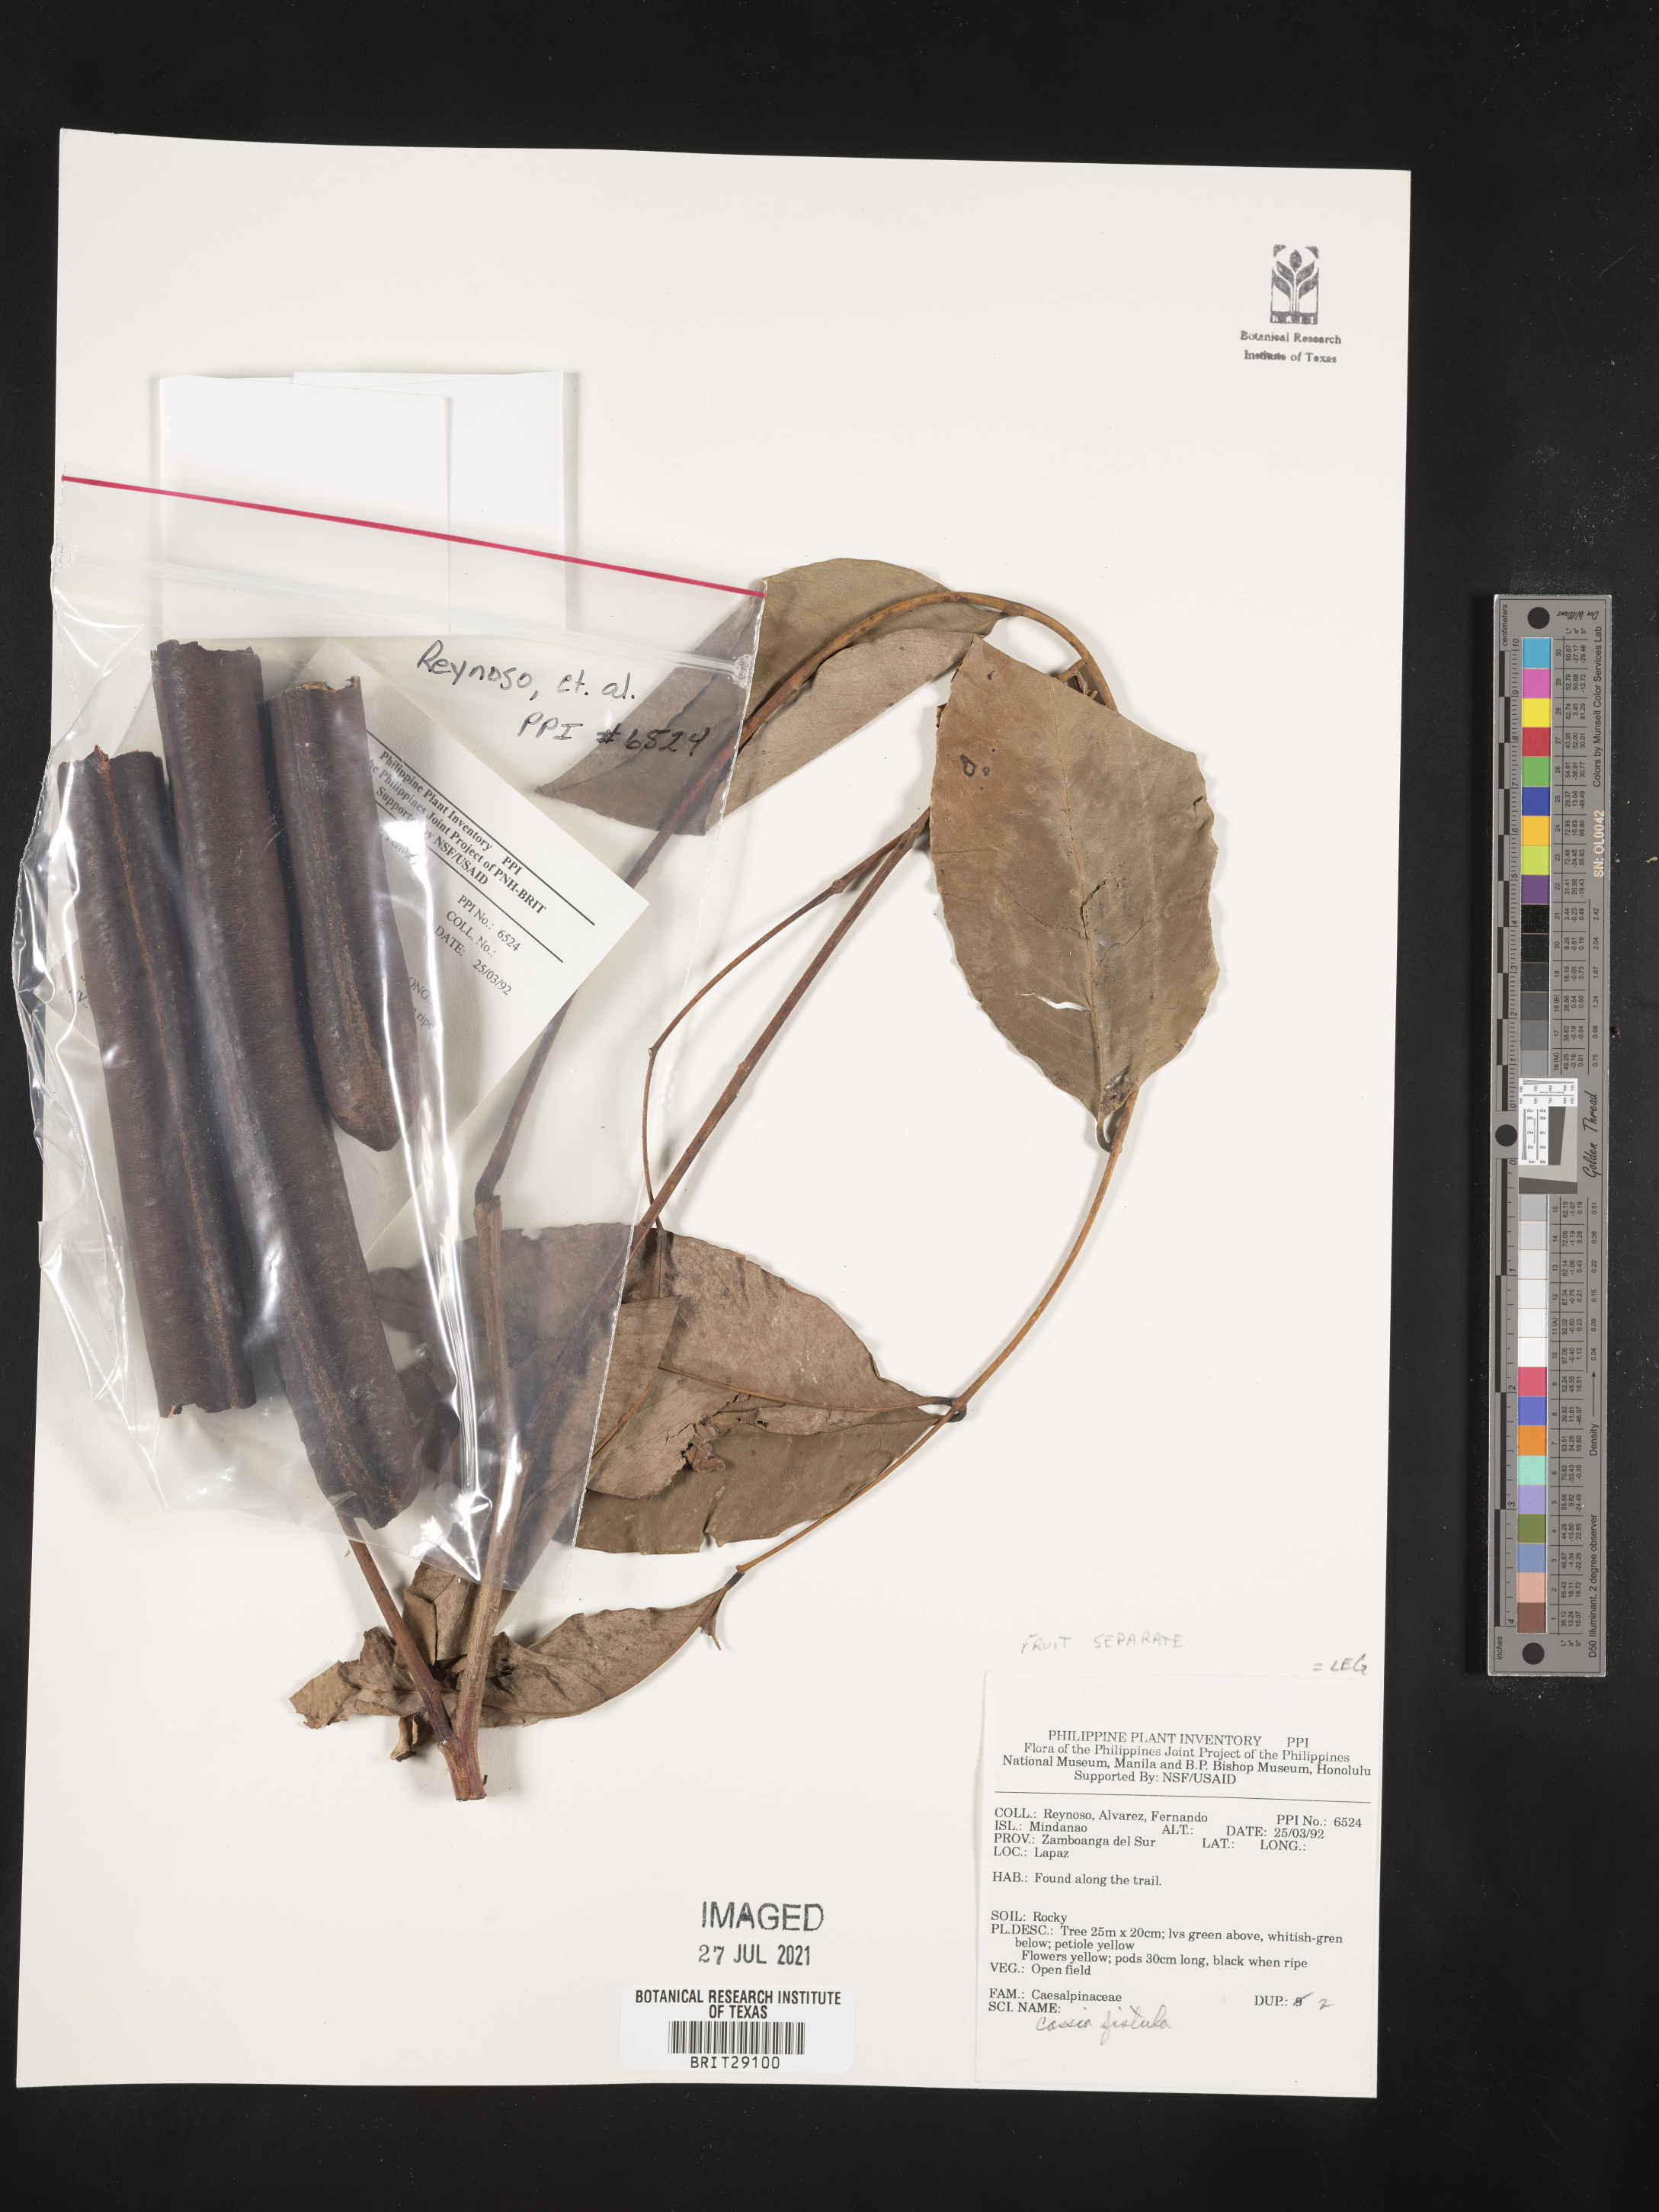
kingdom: Plantae
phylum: Tracheophyta
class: Magnoliopsida
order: Fabales
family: Fabaceae
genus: Cassia
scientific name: Cassia fistula
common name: Golden shower
